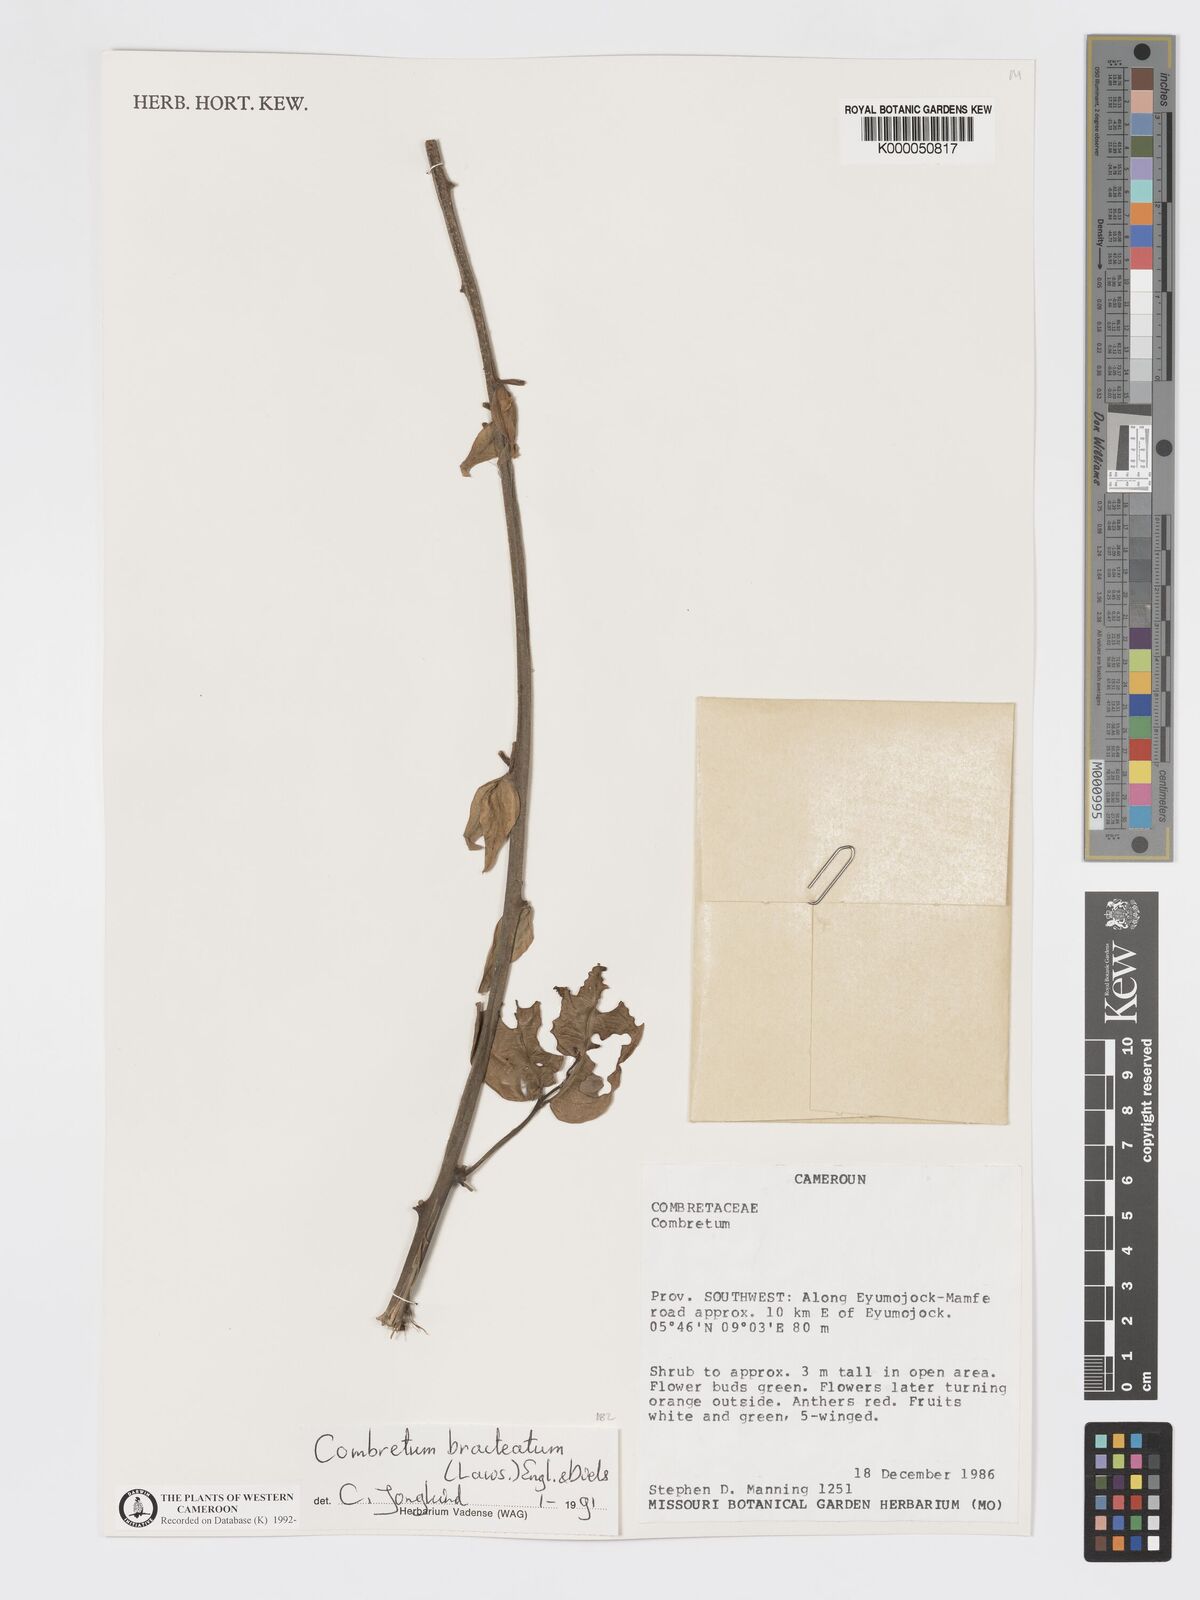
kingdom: Plantae
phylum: Tracheophyta
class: Magnoliopsida
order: Myrtales
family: Combretaceae
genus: Combretum
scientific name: Combretum bracteatum
